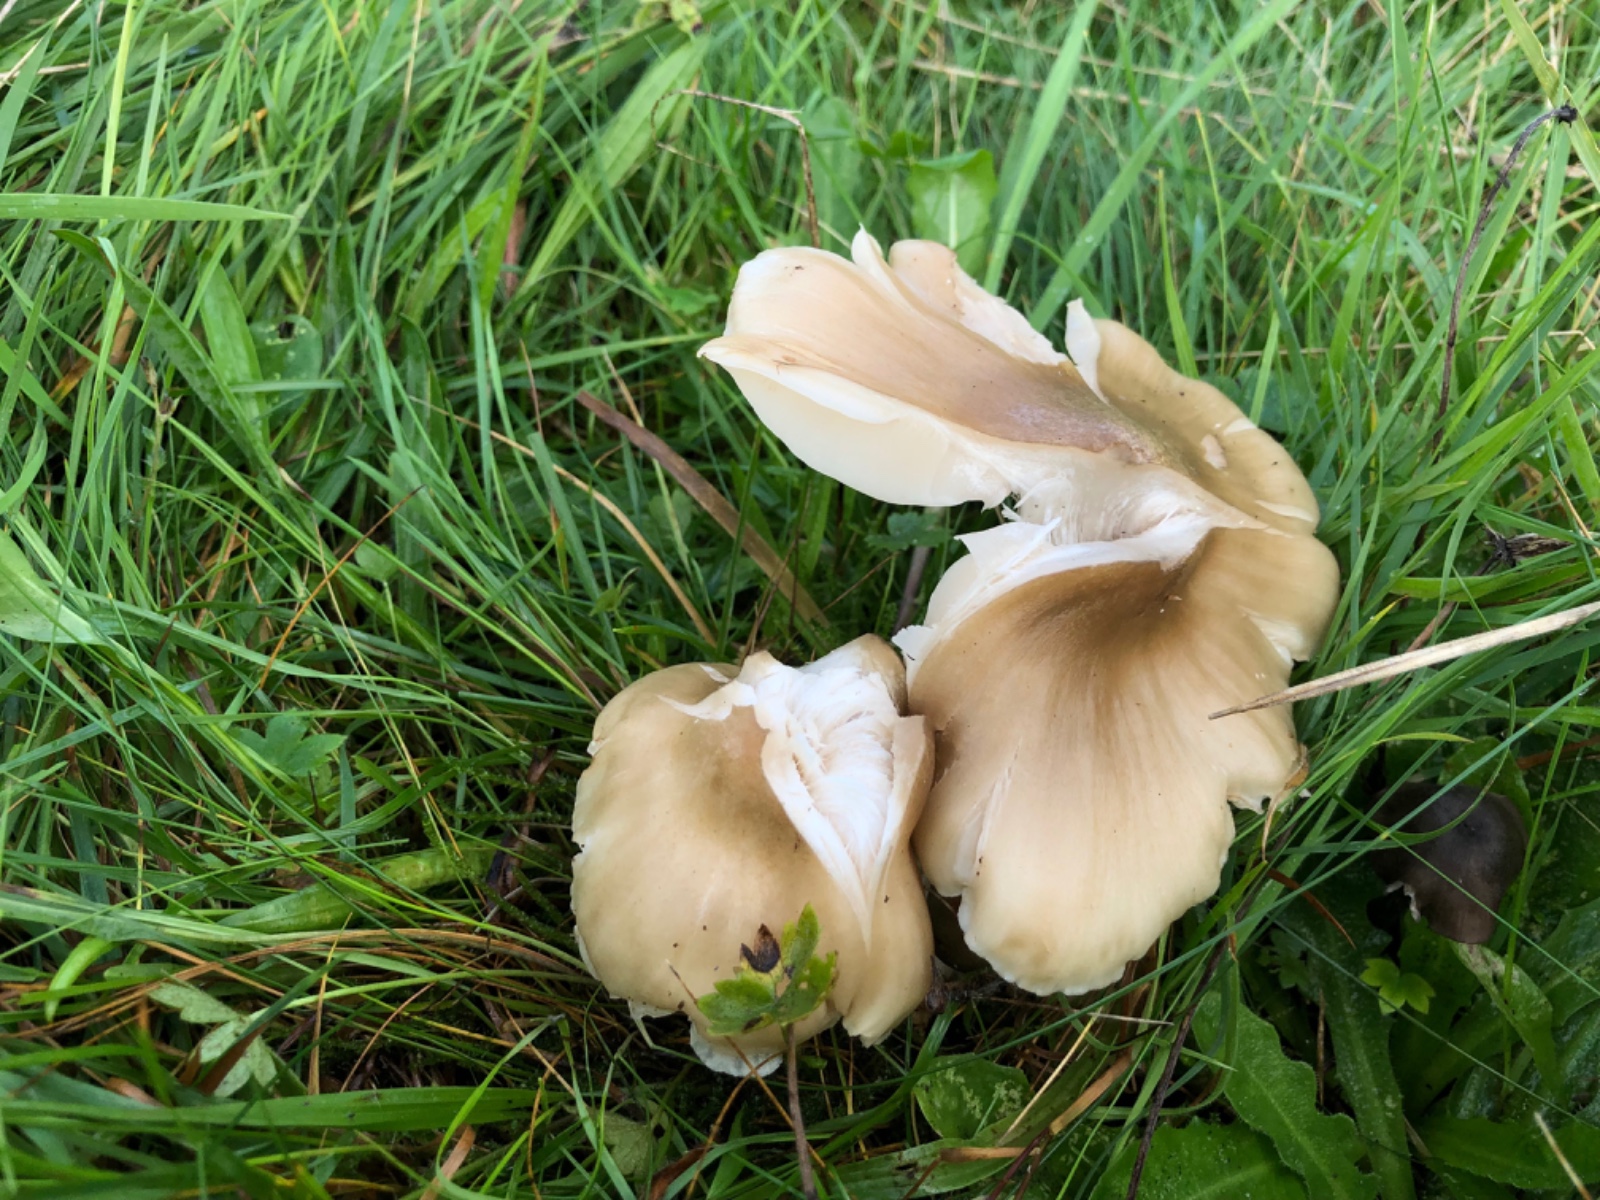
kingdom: Fungi
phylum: Basidiomycota
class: Agaricomycetes
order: Agaricales
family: Hygrophoraceae
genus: Cuphophyllus
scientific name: Cuphophyllus fornicatus
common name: gråbrun vokshat
